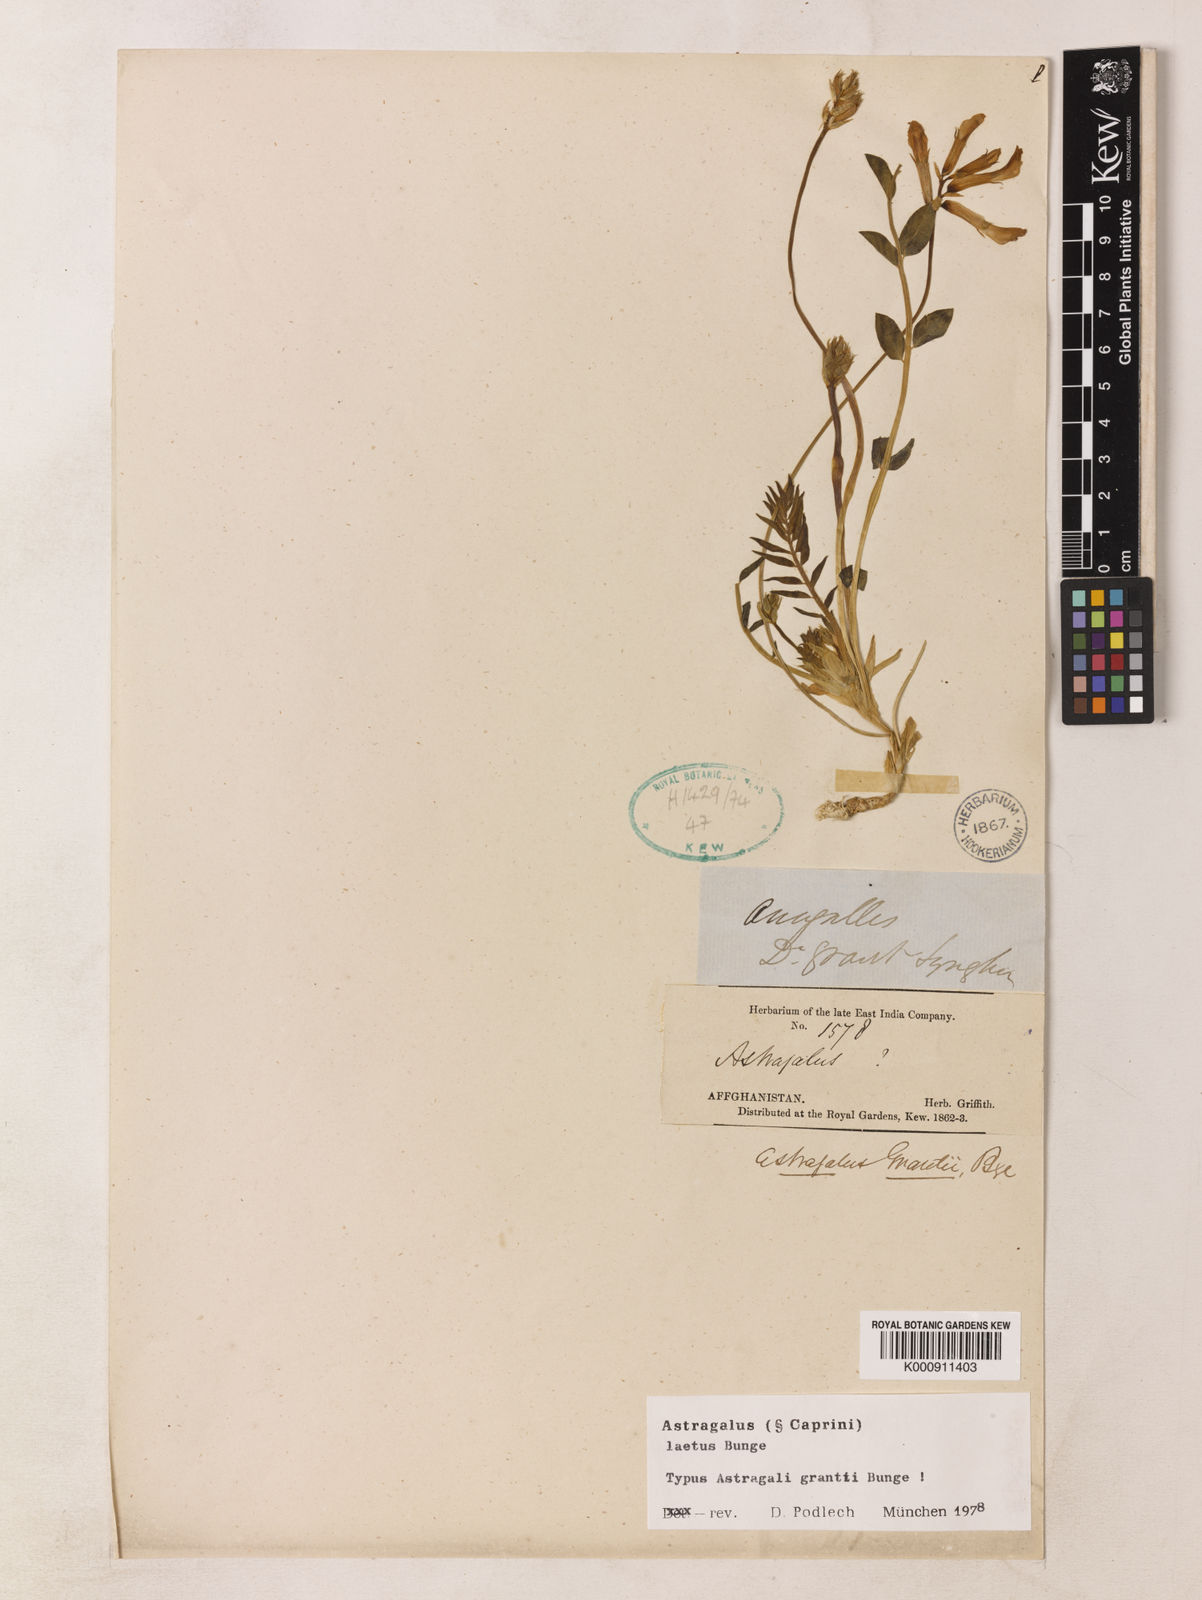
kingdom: Plantae
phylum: Tracheophyta
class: Magnoliopsida
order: Fabales
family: Fabaceae
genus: Astragalus
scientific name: Astragalus laetus
